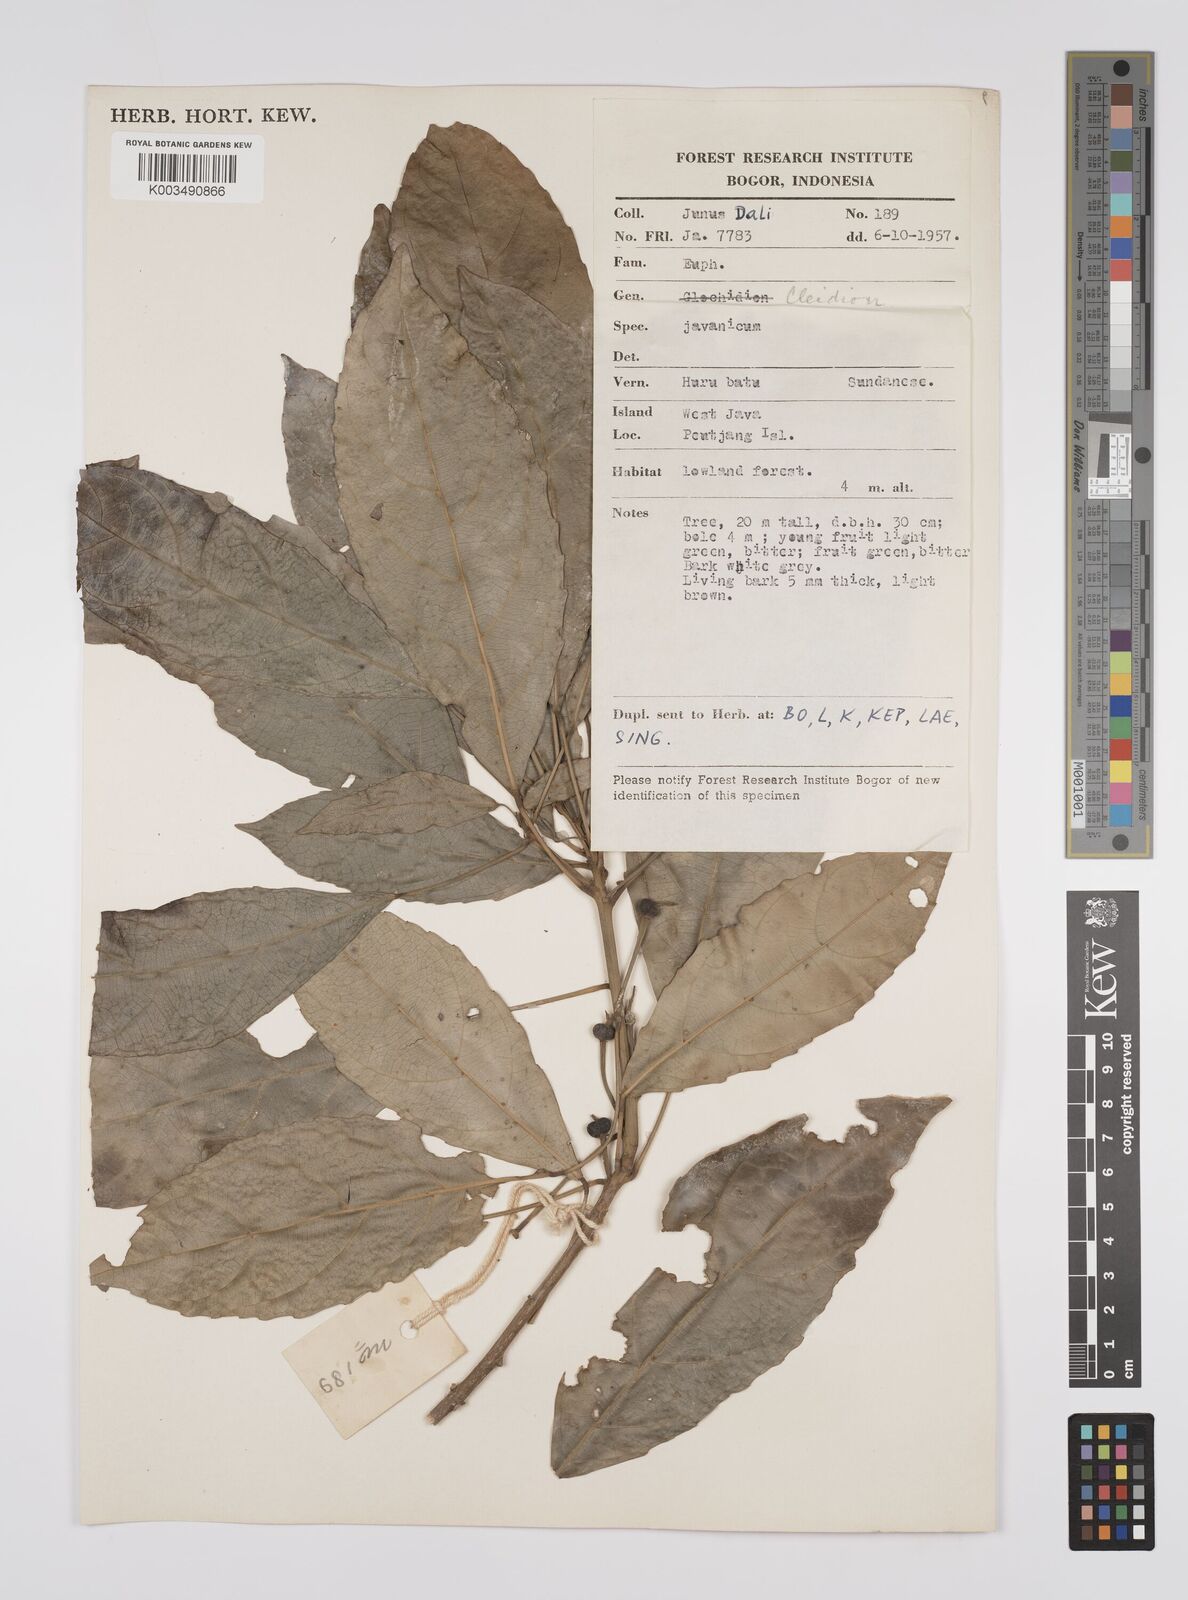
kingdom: Plantae
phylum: Tracheophyta
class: Magnoliopsida
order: Malpighiales
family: Euphorbiaceae
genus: Acalypha
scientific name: Acalypha spiciflora
